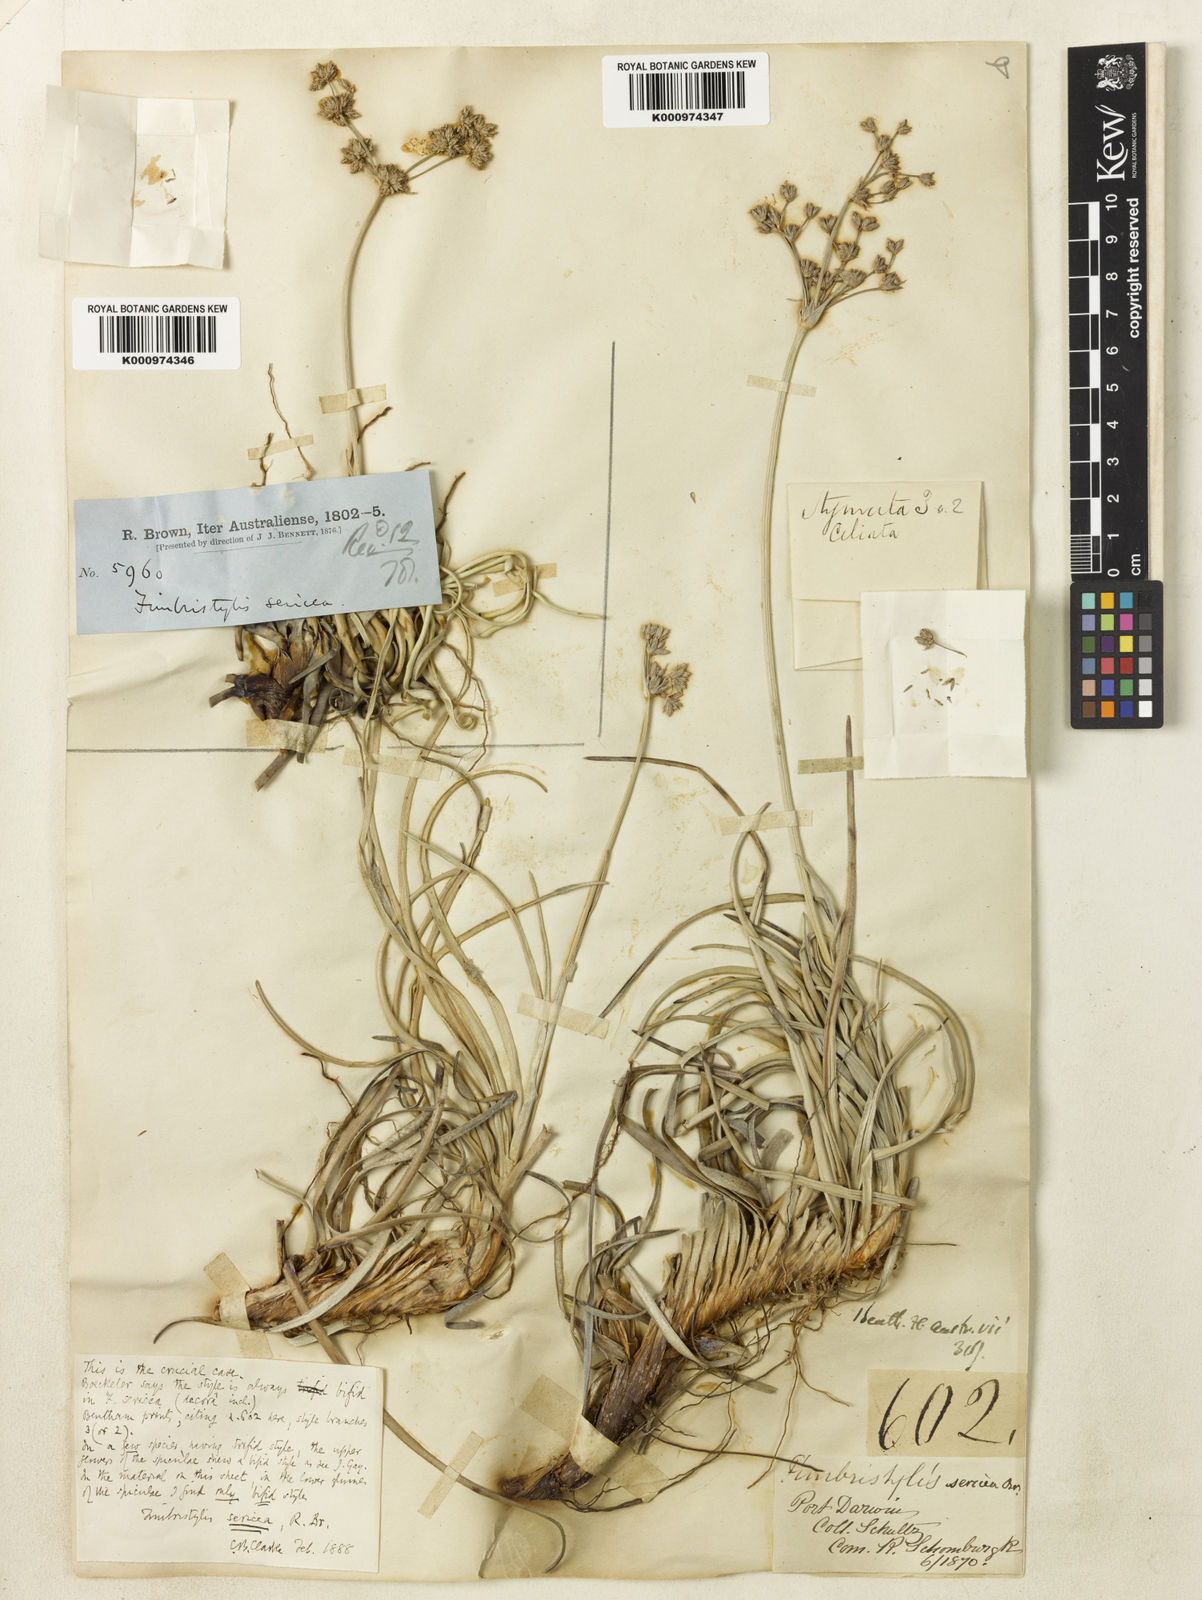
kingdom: Plantae
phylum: Tracheophyta
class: Liliopsida
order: Poales
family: Cyperaceae
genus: Fimbristylis
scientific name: Fimbristylis sericea
